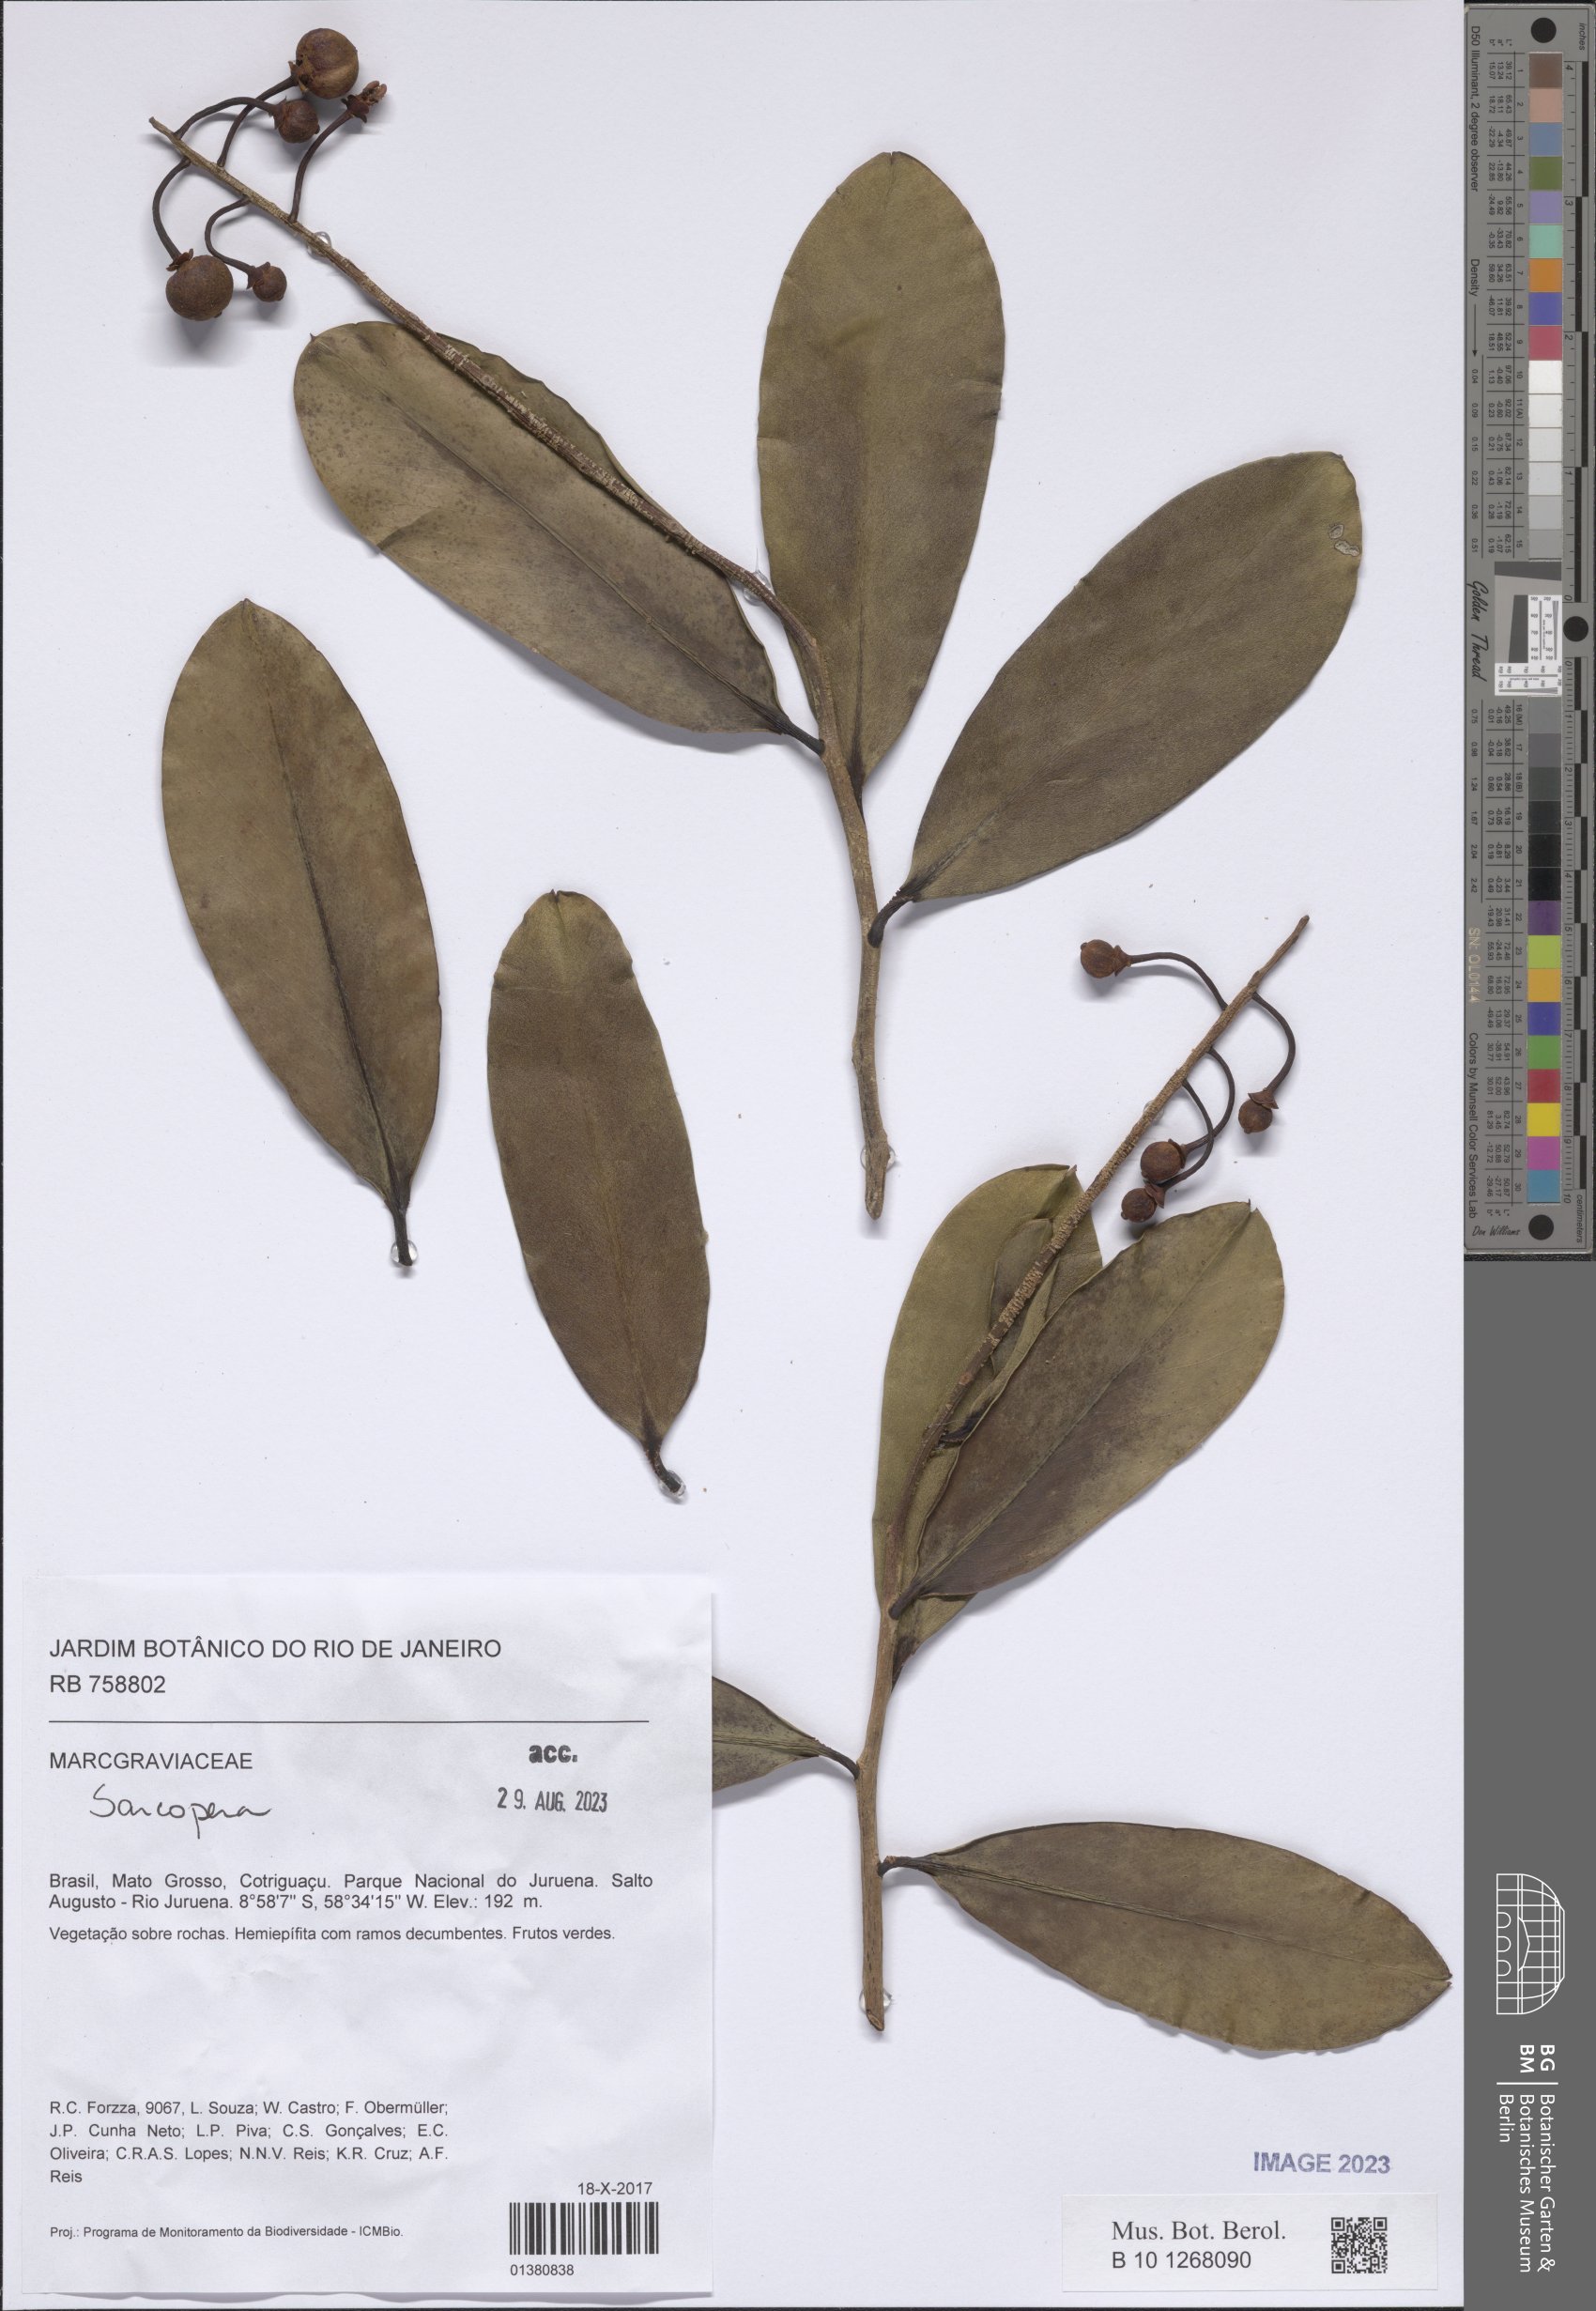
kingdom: Plantae
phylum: Tracheophyta
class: Magnoliopsida
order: Ericales
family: Marcgraviaceae
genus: Sarcopera
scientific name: Sarcopera
